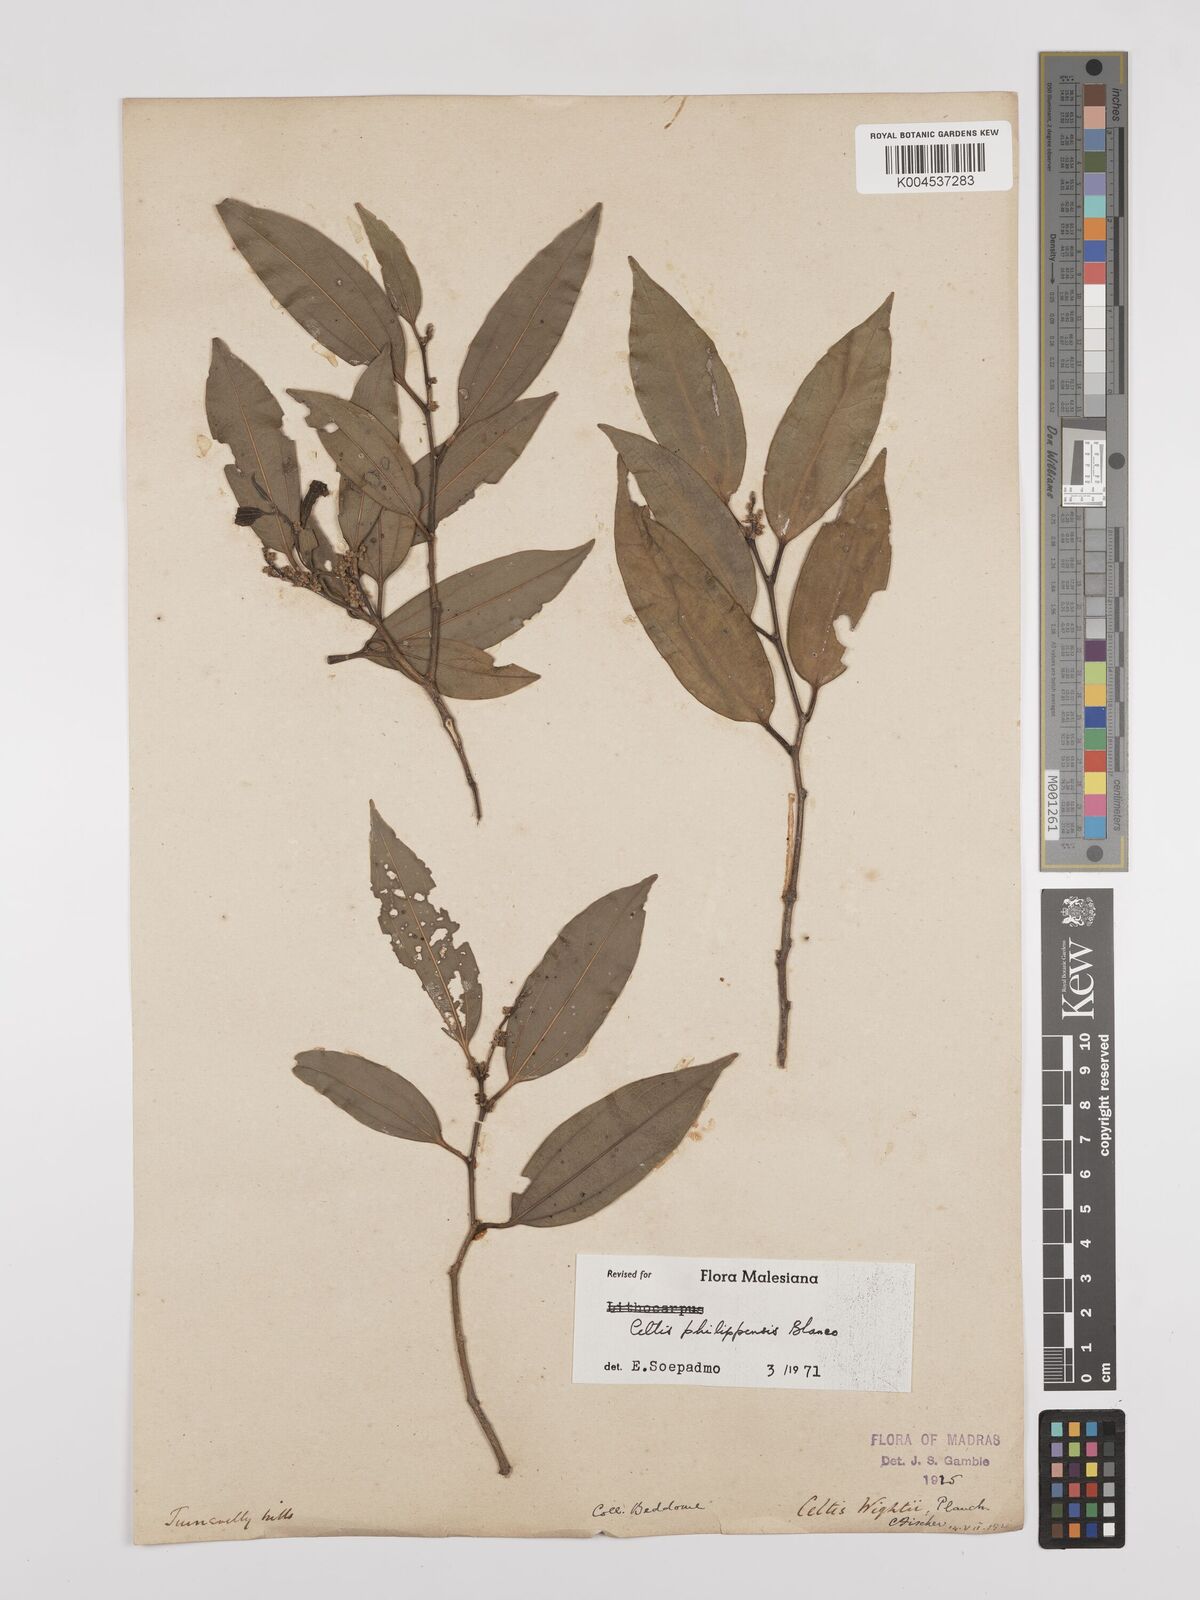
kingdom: Plantae
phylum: Tracheophyta
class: Magnoliopsida
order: Rosales
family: Cannabaceae
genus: Celtis
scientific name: Celtis philippensis
